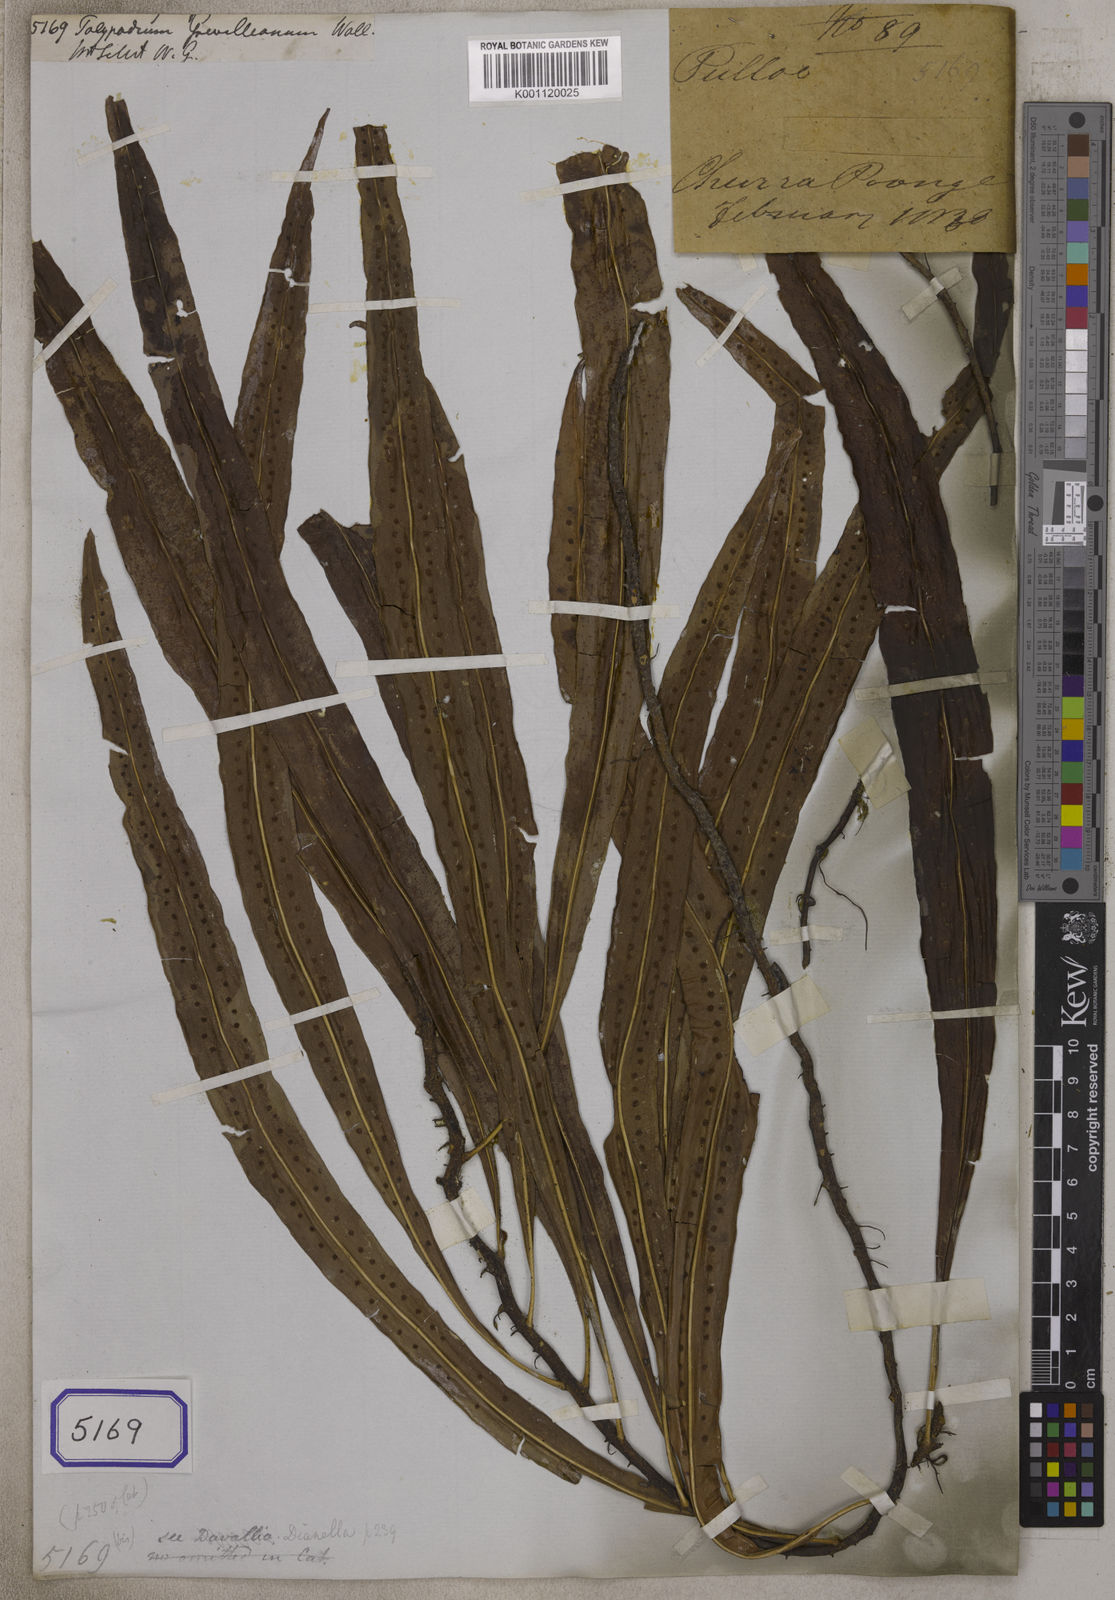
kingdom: Plantae
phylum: Tracheophyta
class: Polypodiopsida
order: Polypodiales
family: Polypodiaceae
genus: Lepisorus
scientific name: Lepisorus excavatus
